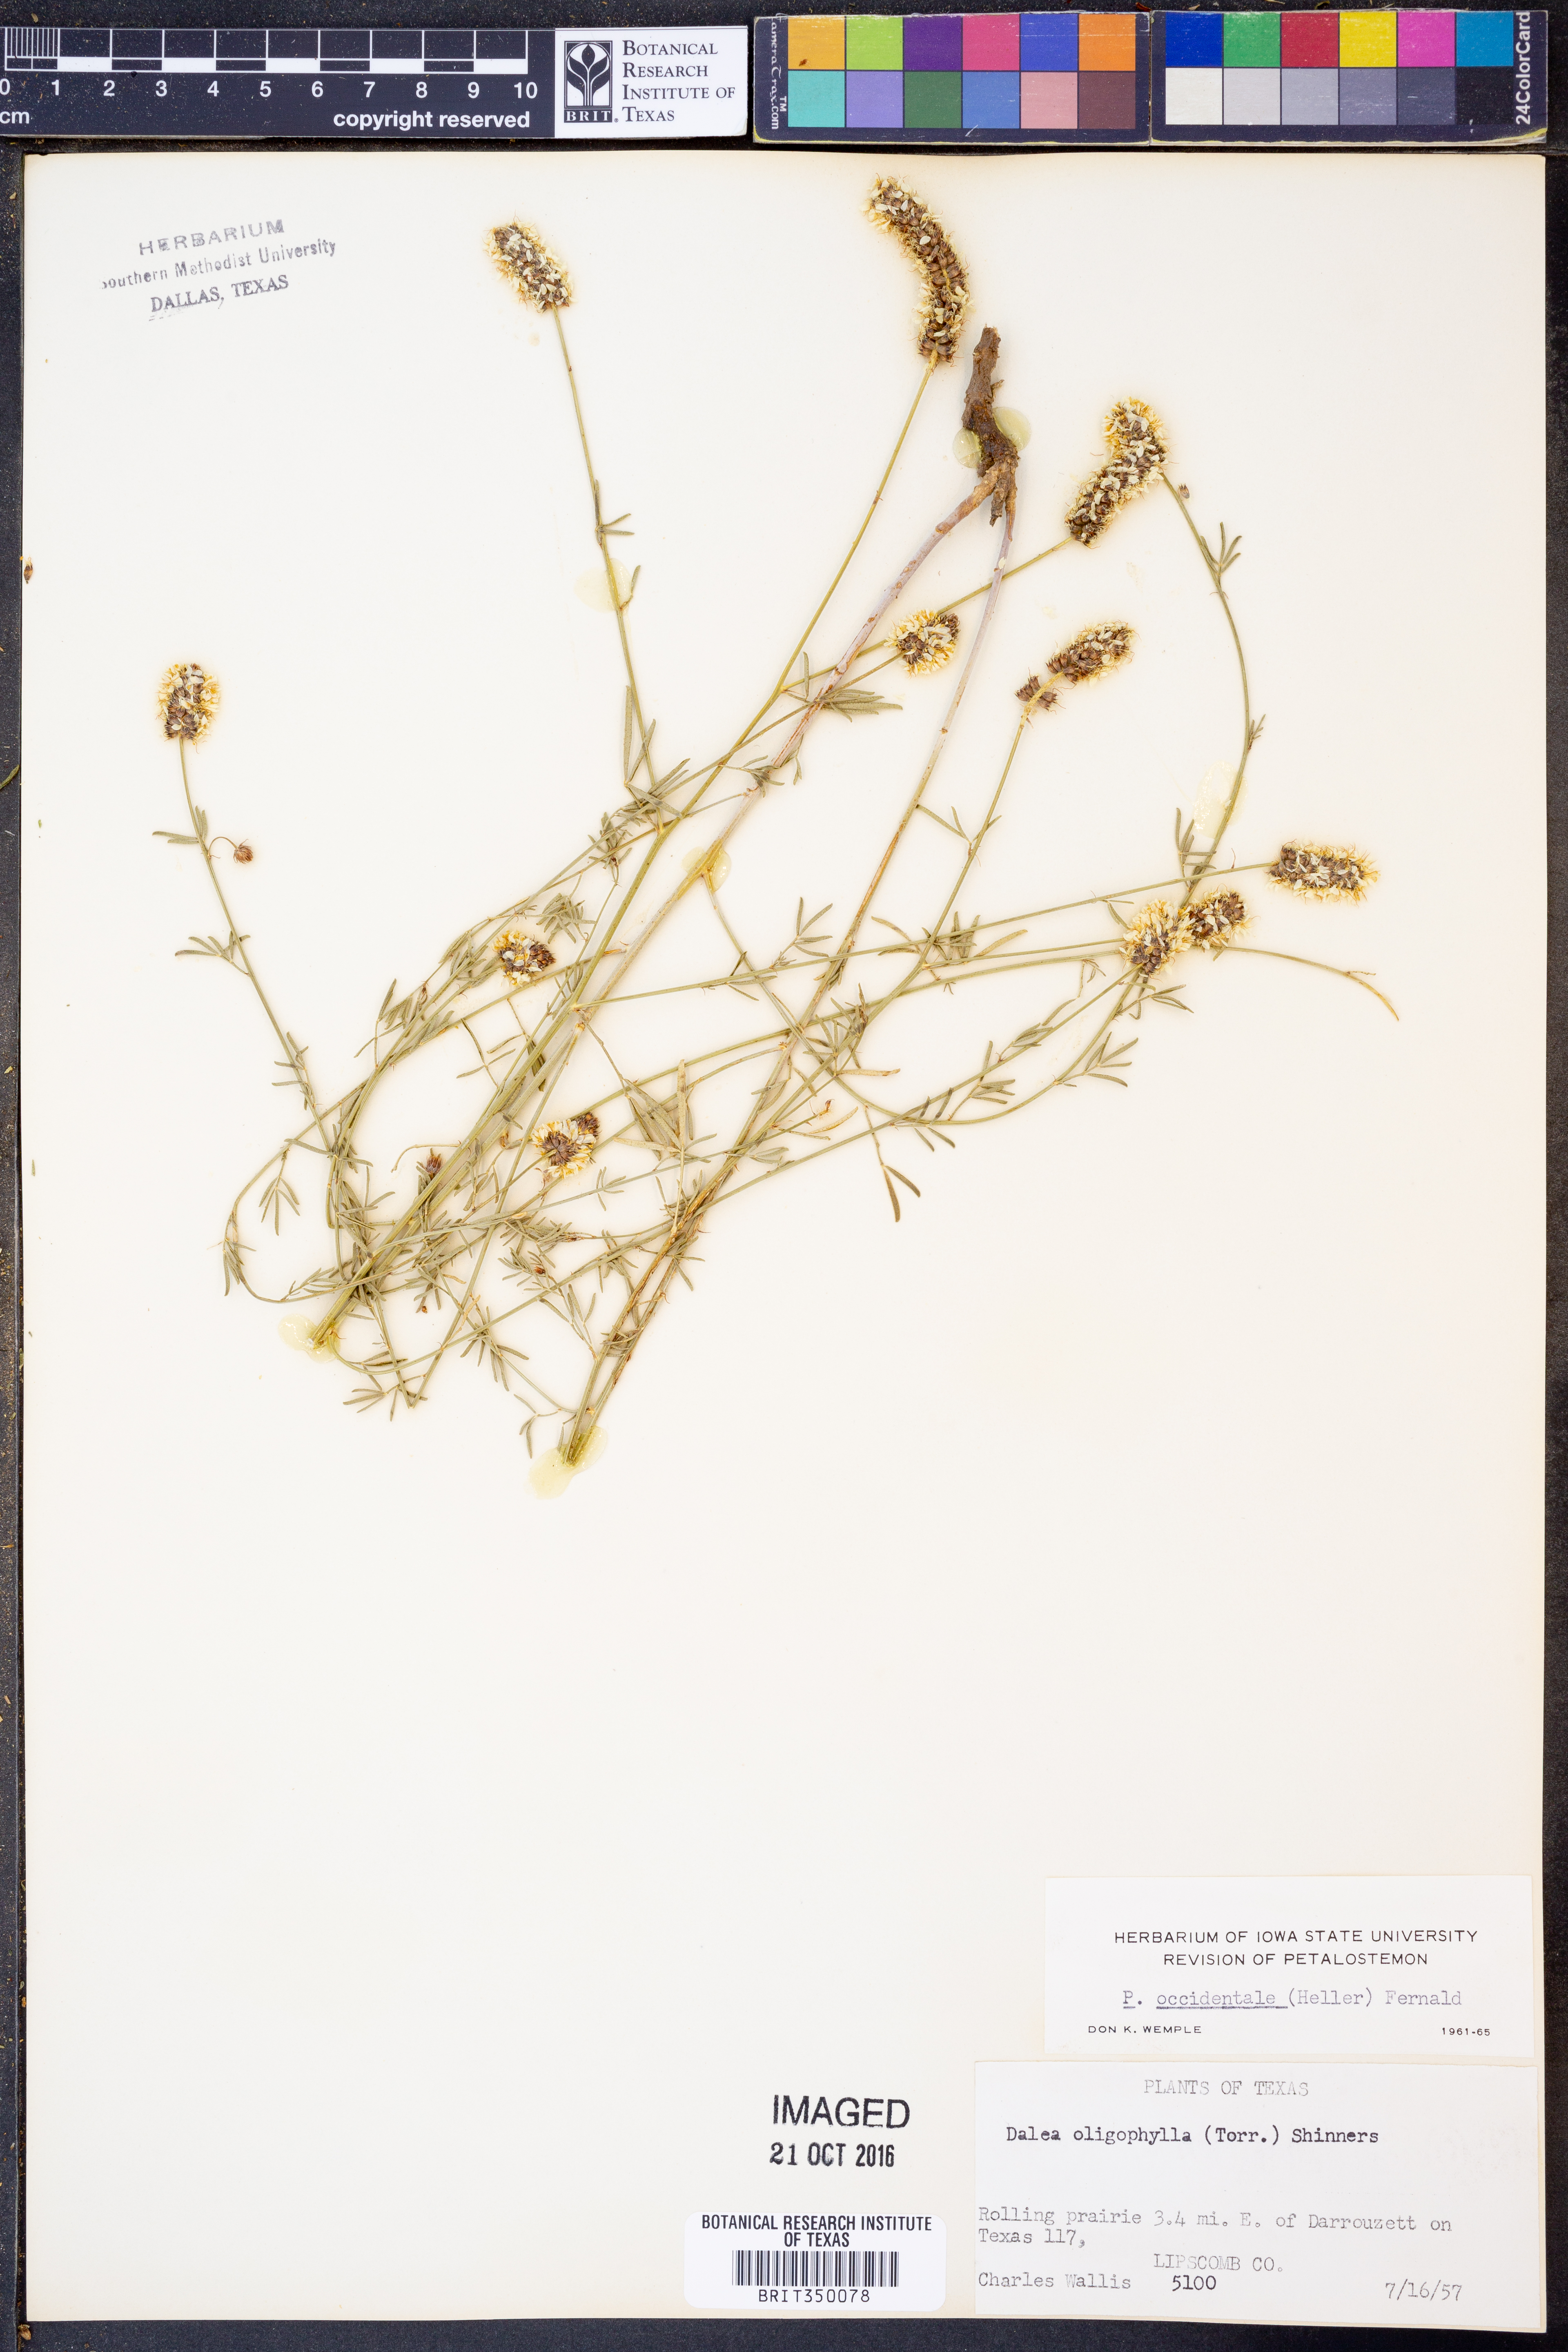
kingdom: Plantae
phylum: Tracheophyta
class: Magnoliopsida
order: Fabales
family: Fabaceae
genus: Dalea
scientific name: Dalea candida
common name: White prairie-clover
